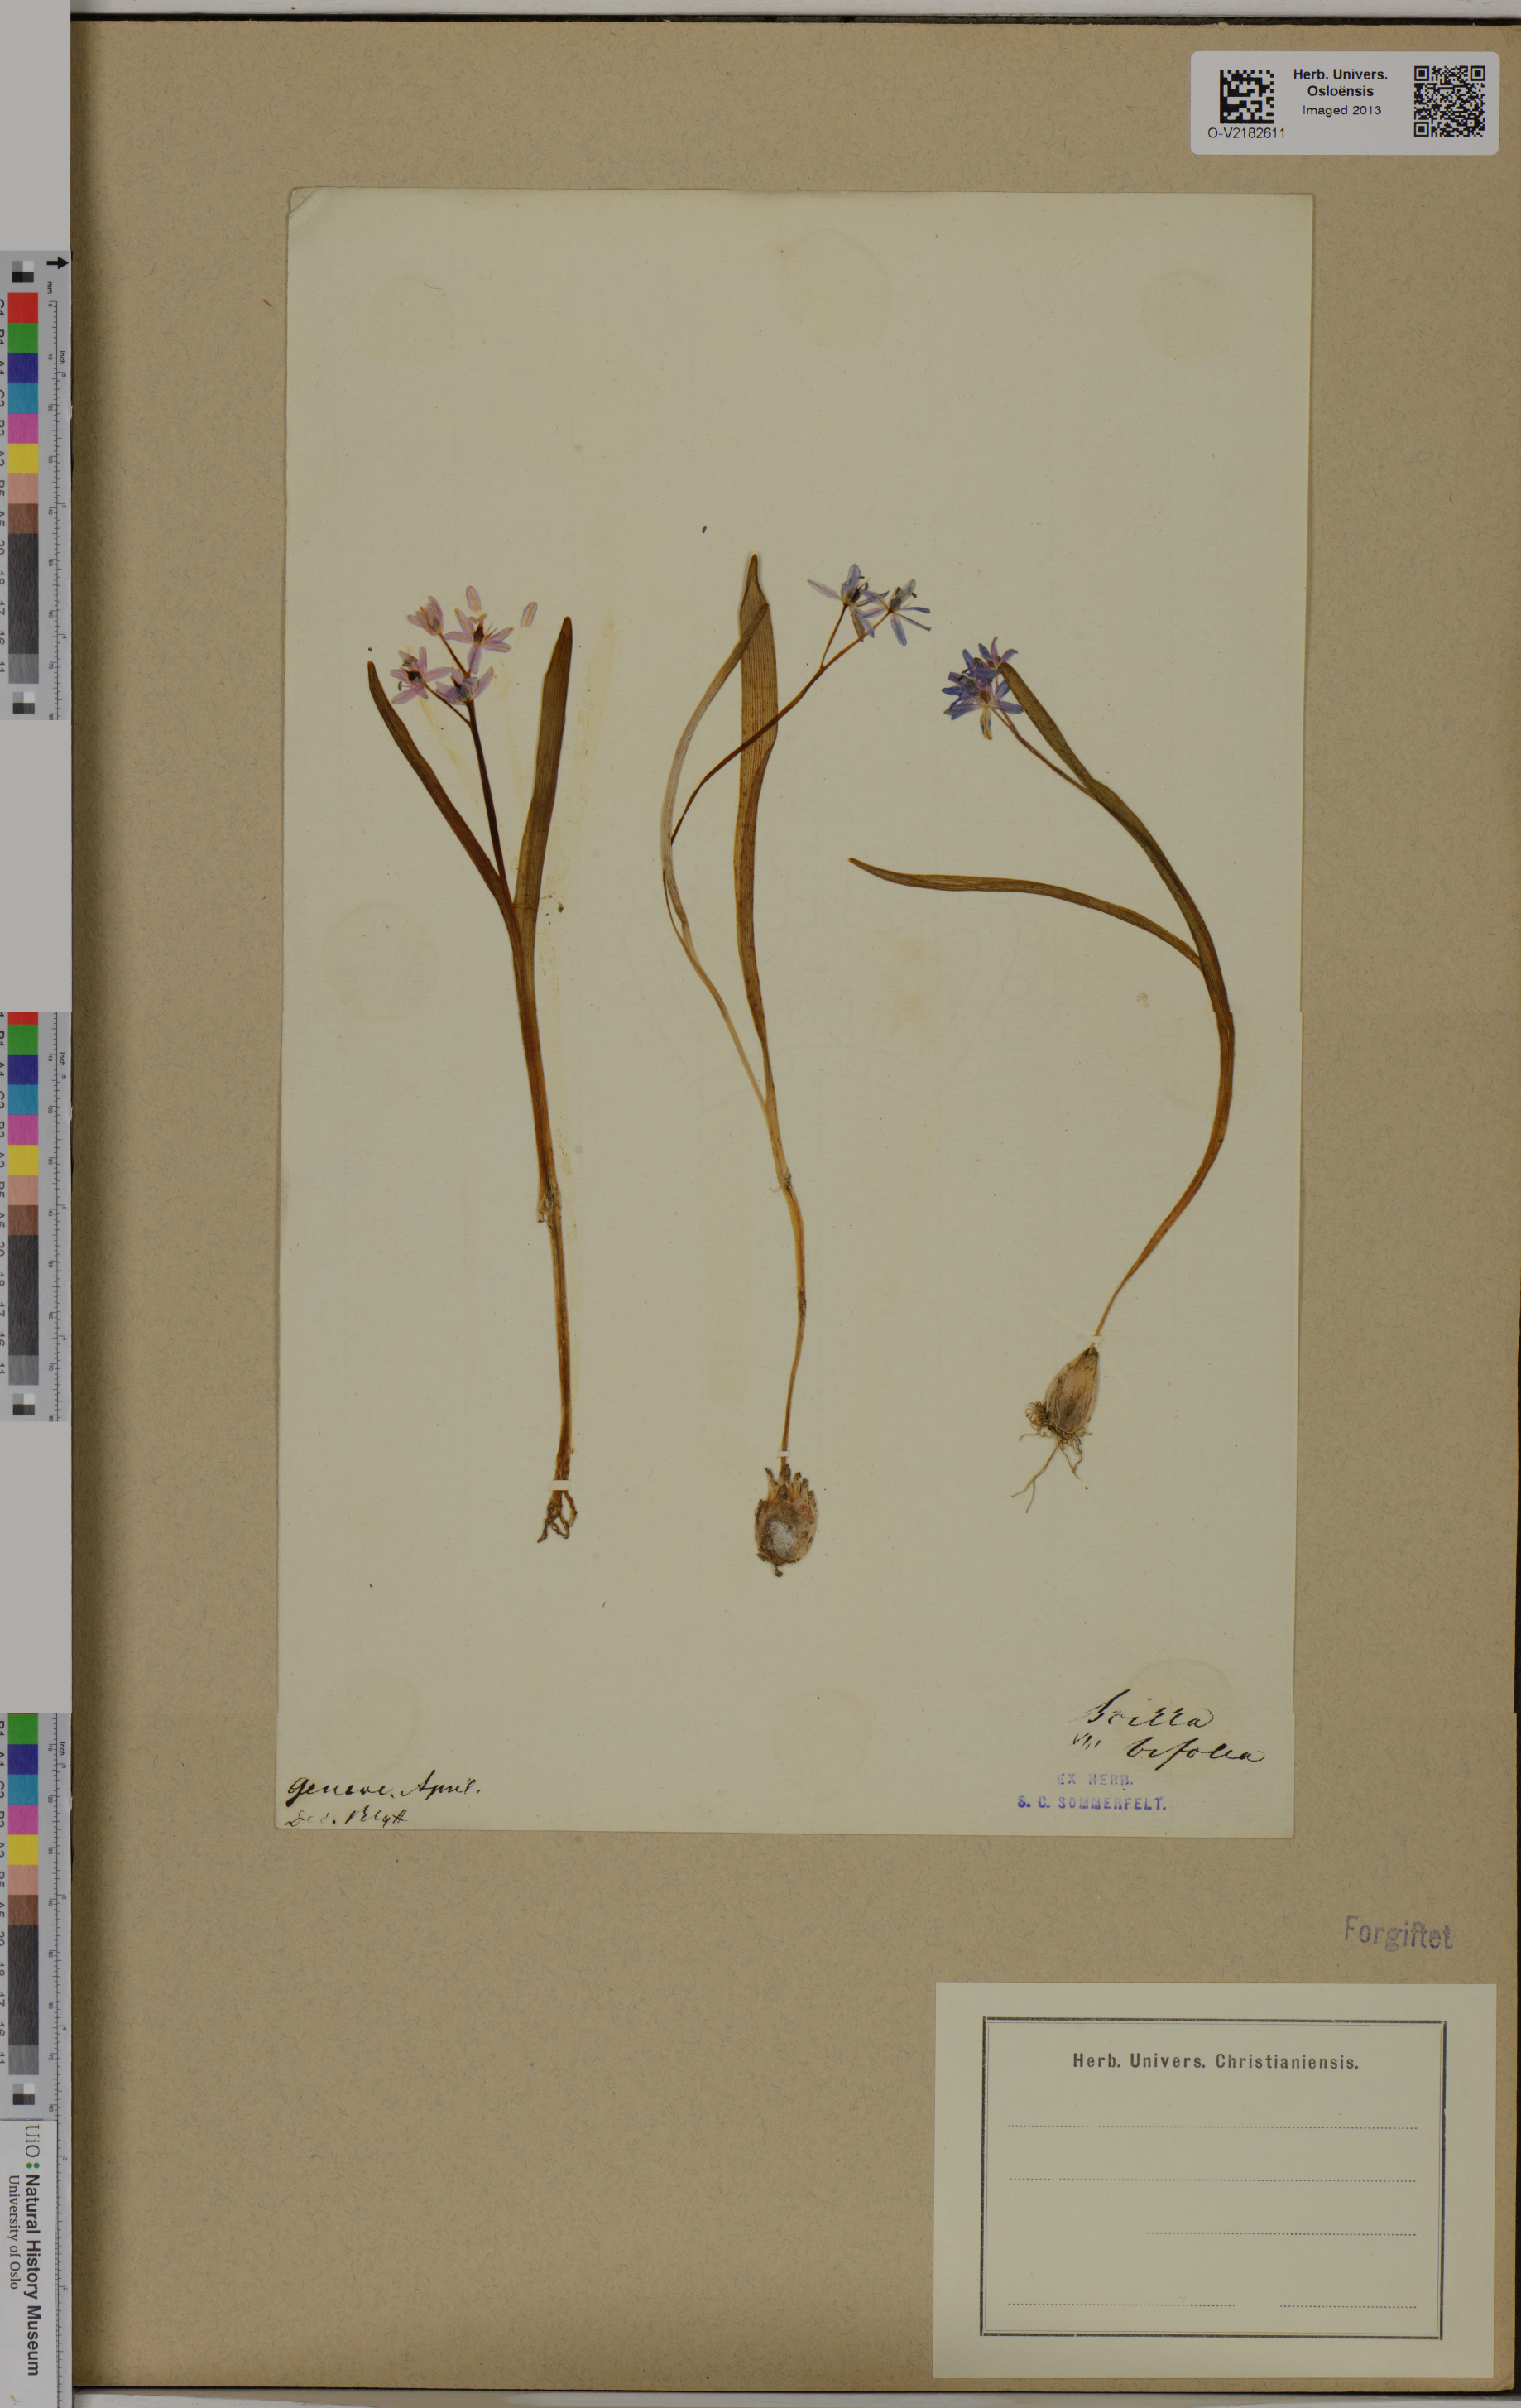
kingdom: Plantae
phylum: Tracheophyta
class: Liliopsida
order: Asparagales
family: Asparagaceae
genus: Scilla
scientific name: Scilla bifolia
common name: Alpine squill
